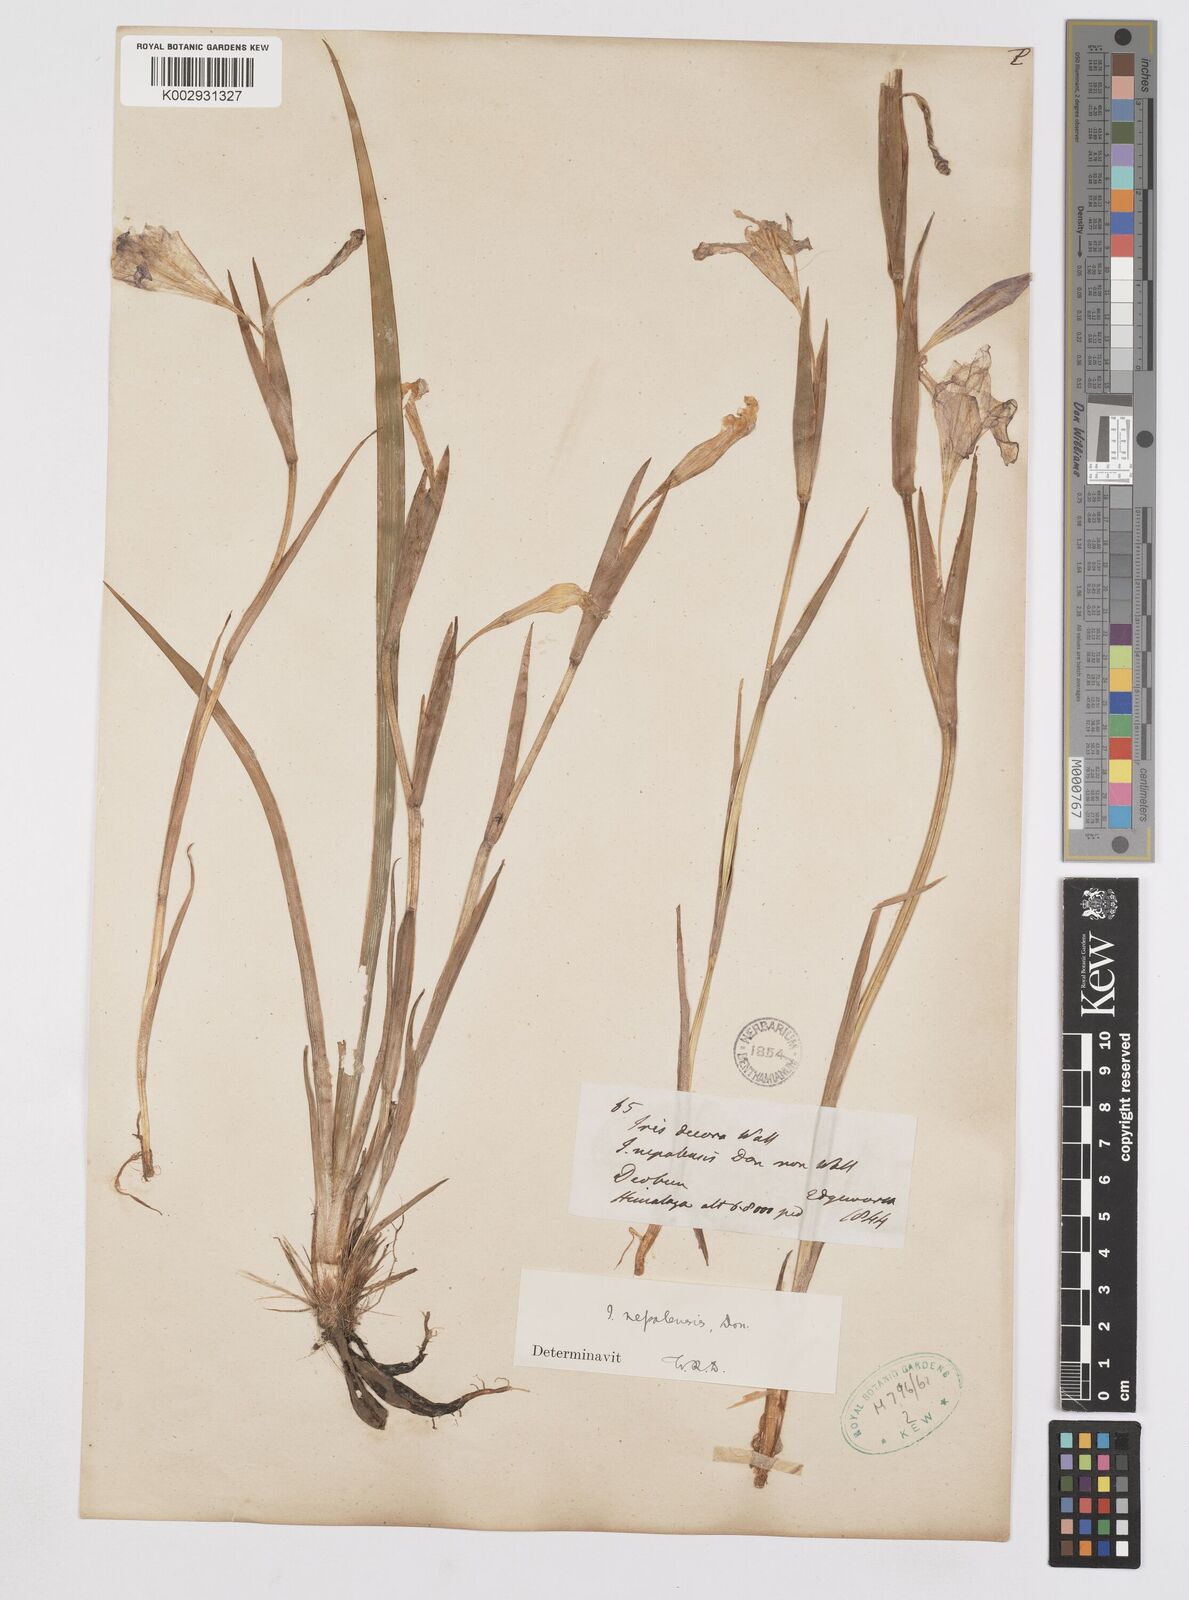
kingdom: Plantae
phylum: Tracheophyta
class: Liliopsida
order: Asparagales
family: Iridaceae
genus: Iris
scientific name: Iris decora
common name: Nepal iris
